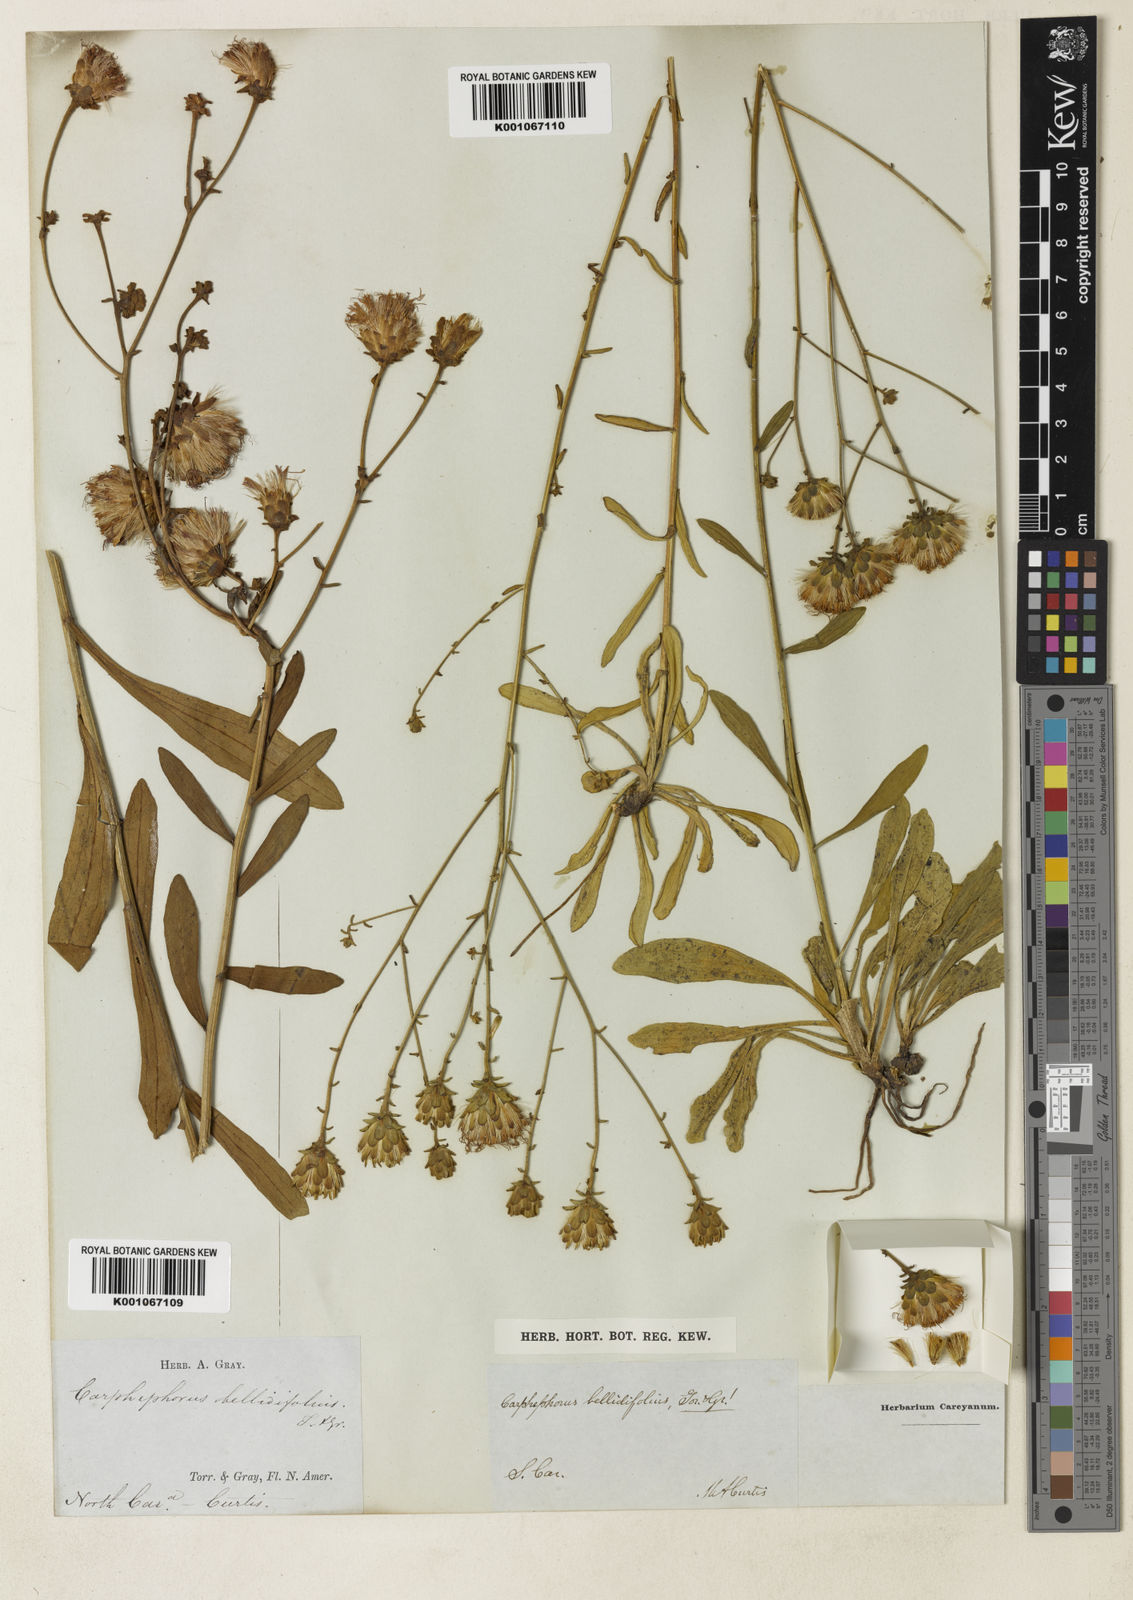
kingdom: Plantae
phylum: Tracheophyta
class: Magnoliopsida
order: Asterales
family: Asteraceae
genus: Carphephorus
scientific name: Carphephorus bellidifolius
